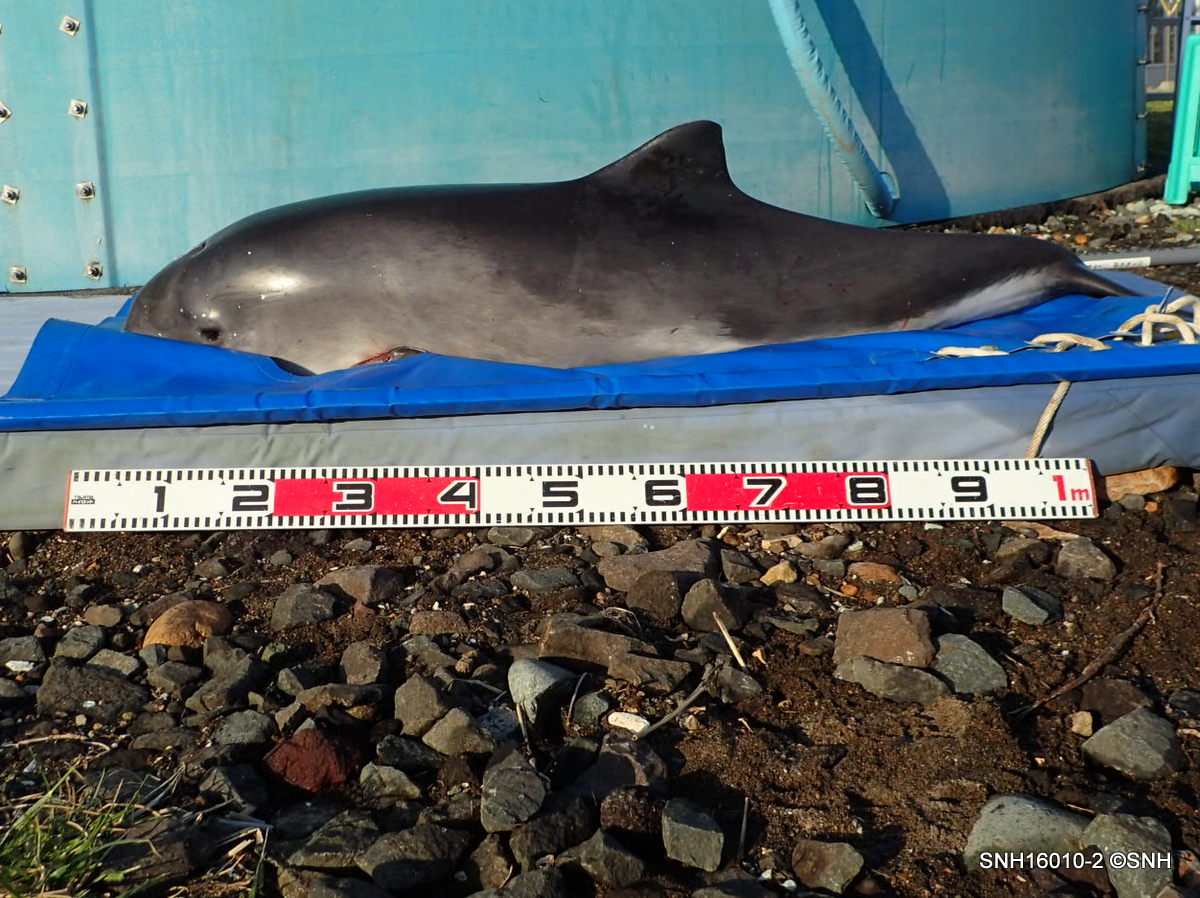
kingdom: Animalia
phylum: Chordata
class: Mammalia
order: Cetacea
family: Phocoenidae
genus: Phocoena
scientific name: Phocoena phocoena
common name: Harbour porpoise
